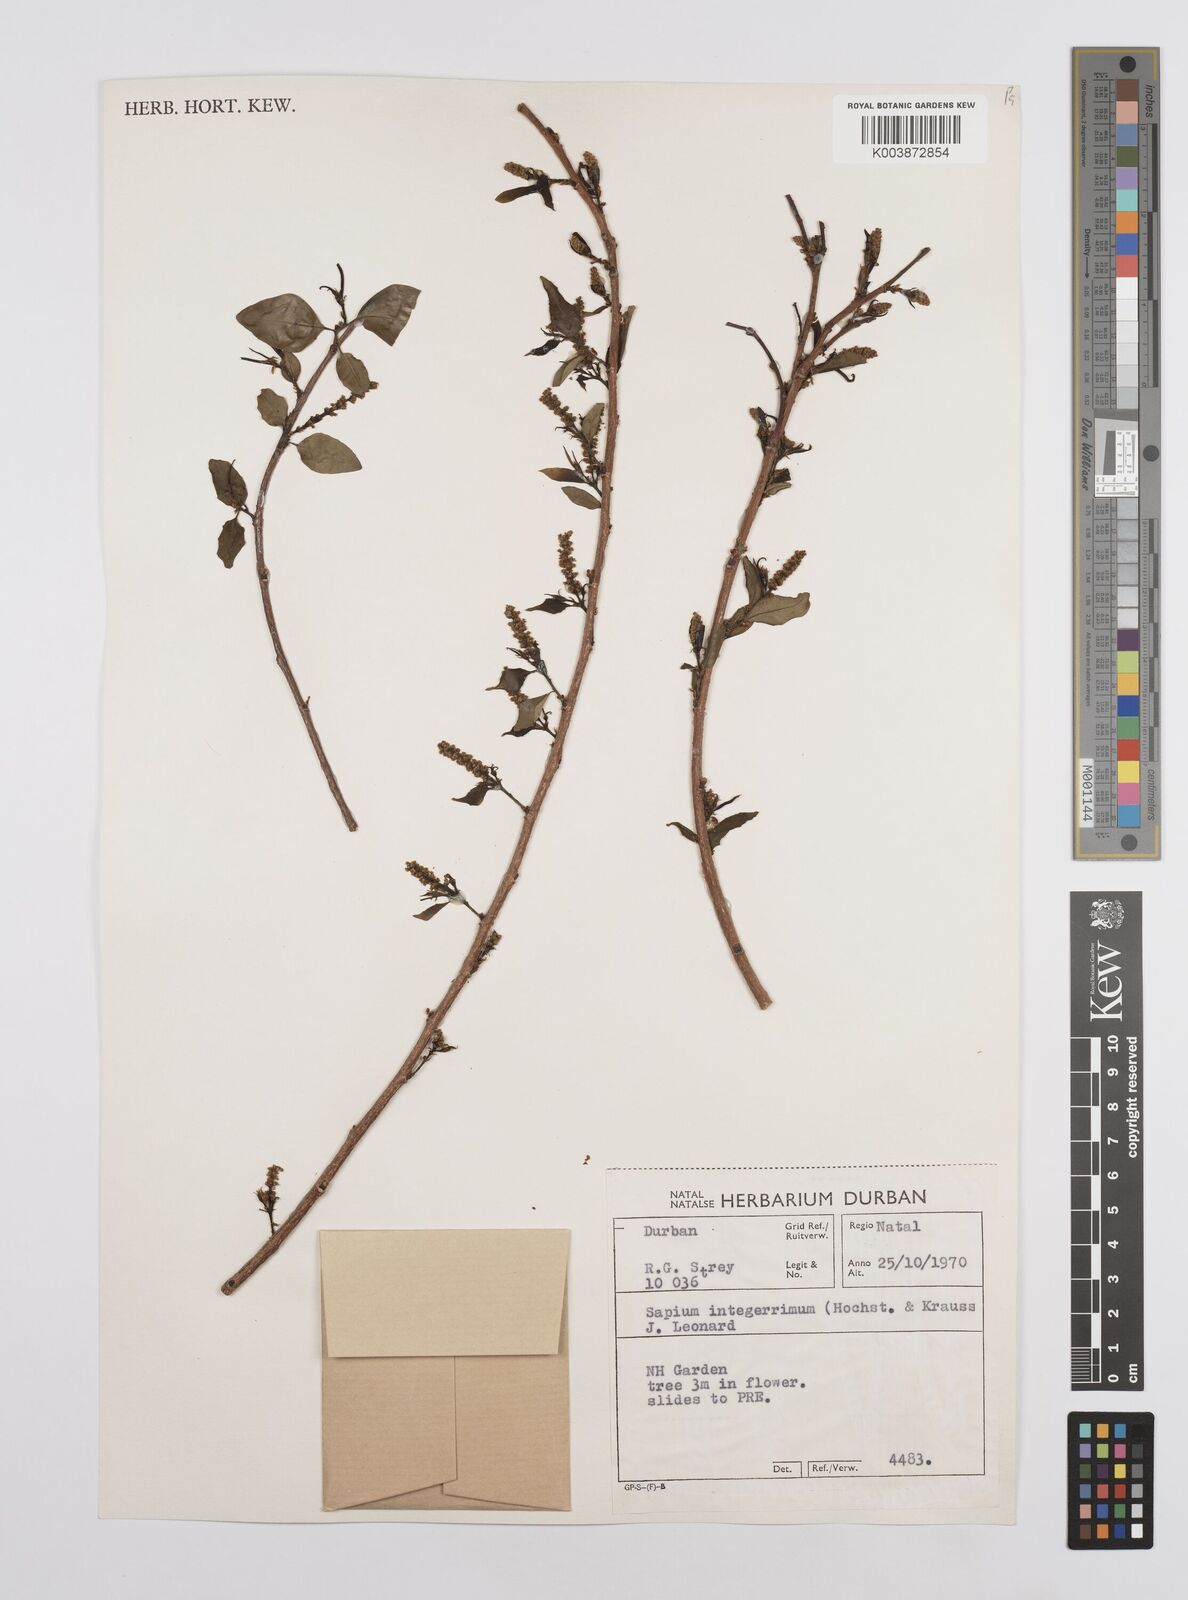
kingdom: Plantae
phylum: Tracheophyta
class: Magnoliopsida
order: Malpighiales
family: Euphorbiaceae
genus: Sclerocroton
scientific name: Sclerocroton integerrimus
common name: Duiker berry
